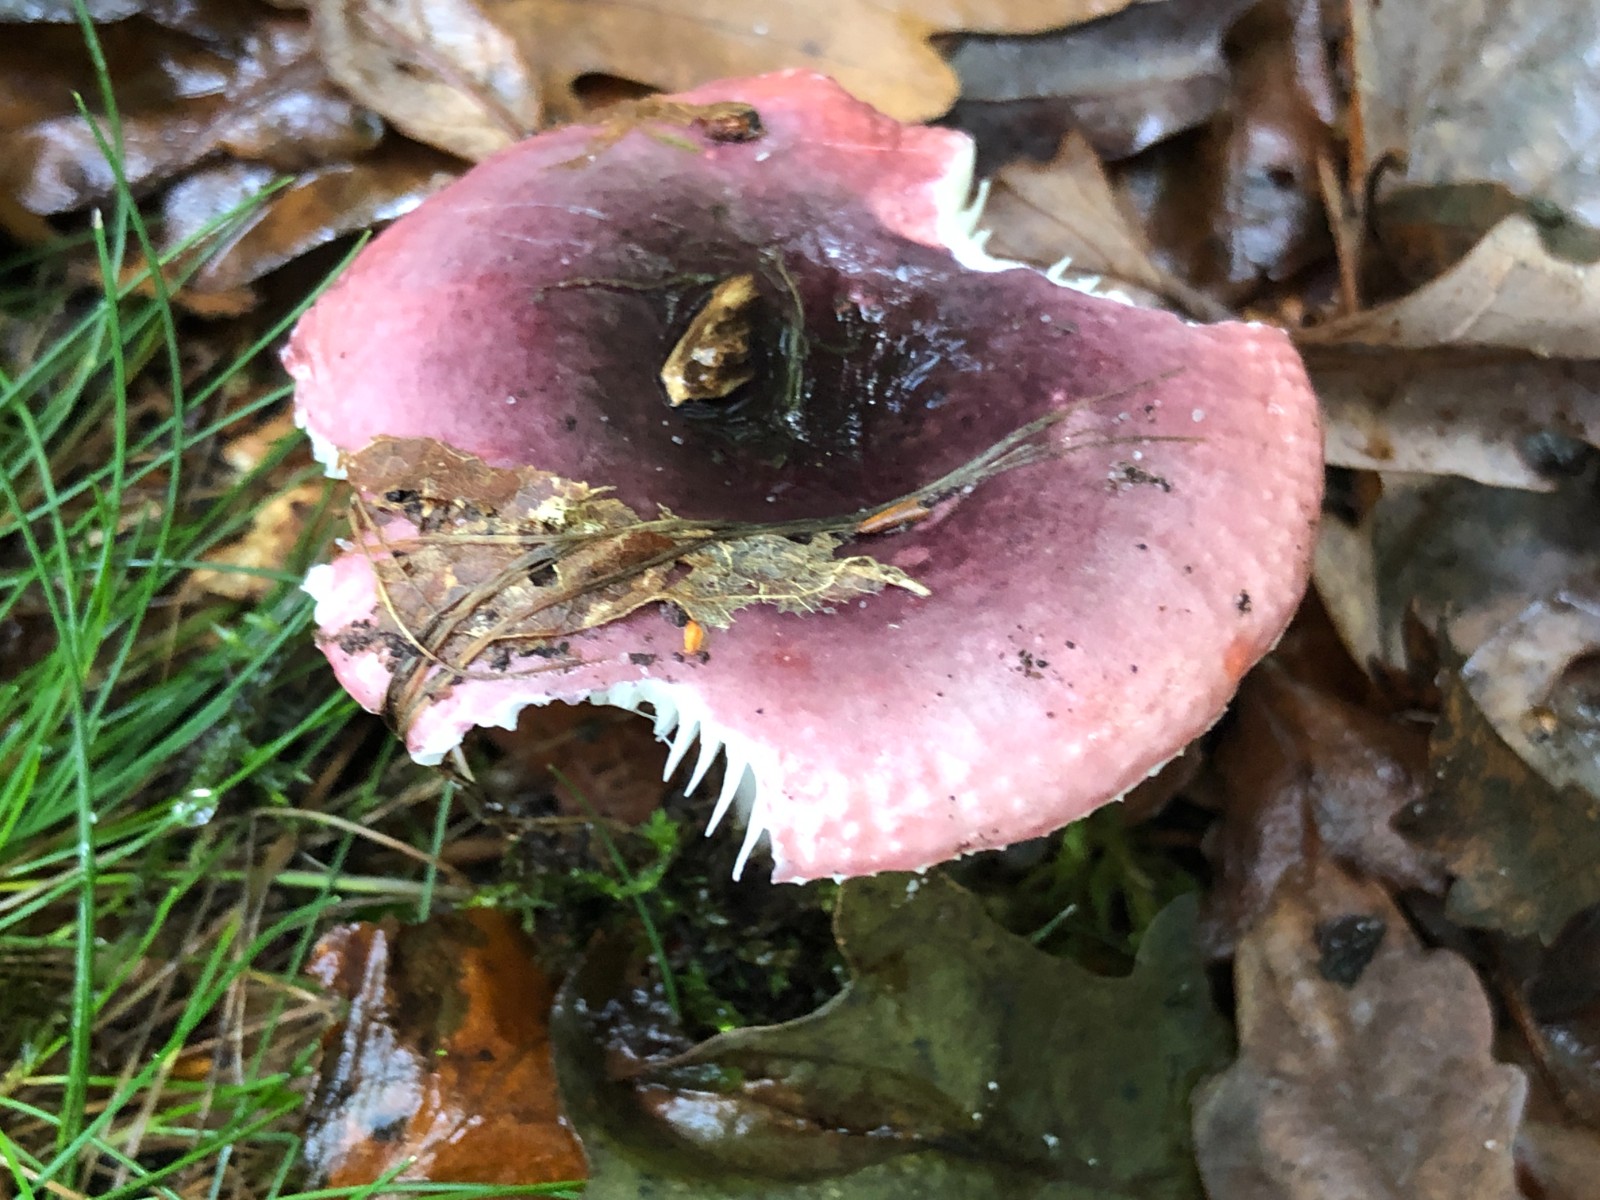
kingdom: Fungi
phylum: Basidiomycota
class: Agaricomycetes
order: Russulales
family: Russulaceae
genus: Russula
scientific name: Russula fragilis
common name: savbladet skørhat
